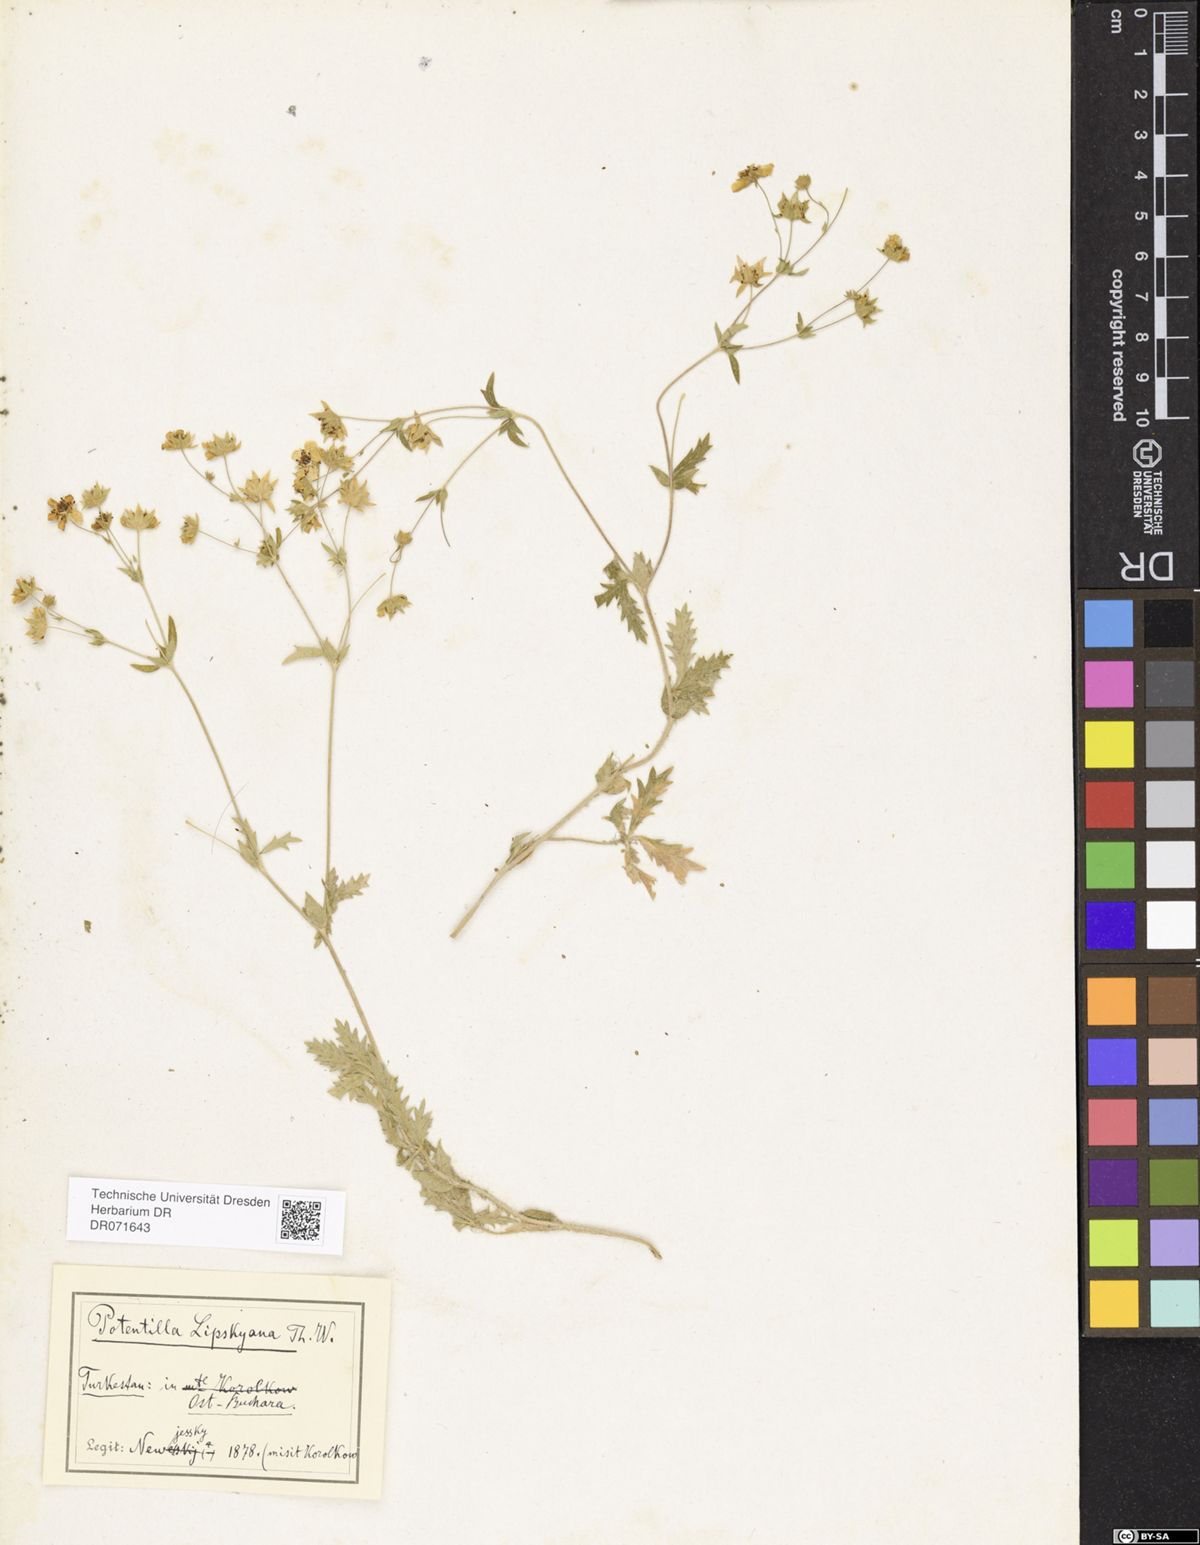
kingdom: Plantae
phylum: Tracheophyta
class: Magnoliopsida
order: Rosales
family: Rosaceae
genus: Potentilla
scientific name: Potentilla mollissima
